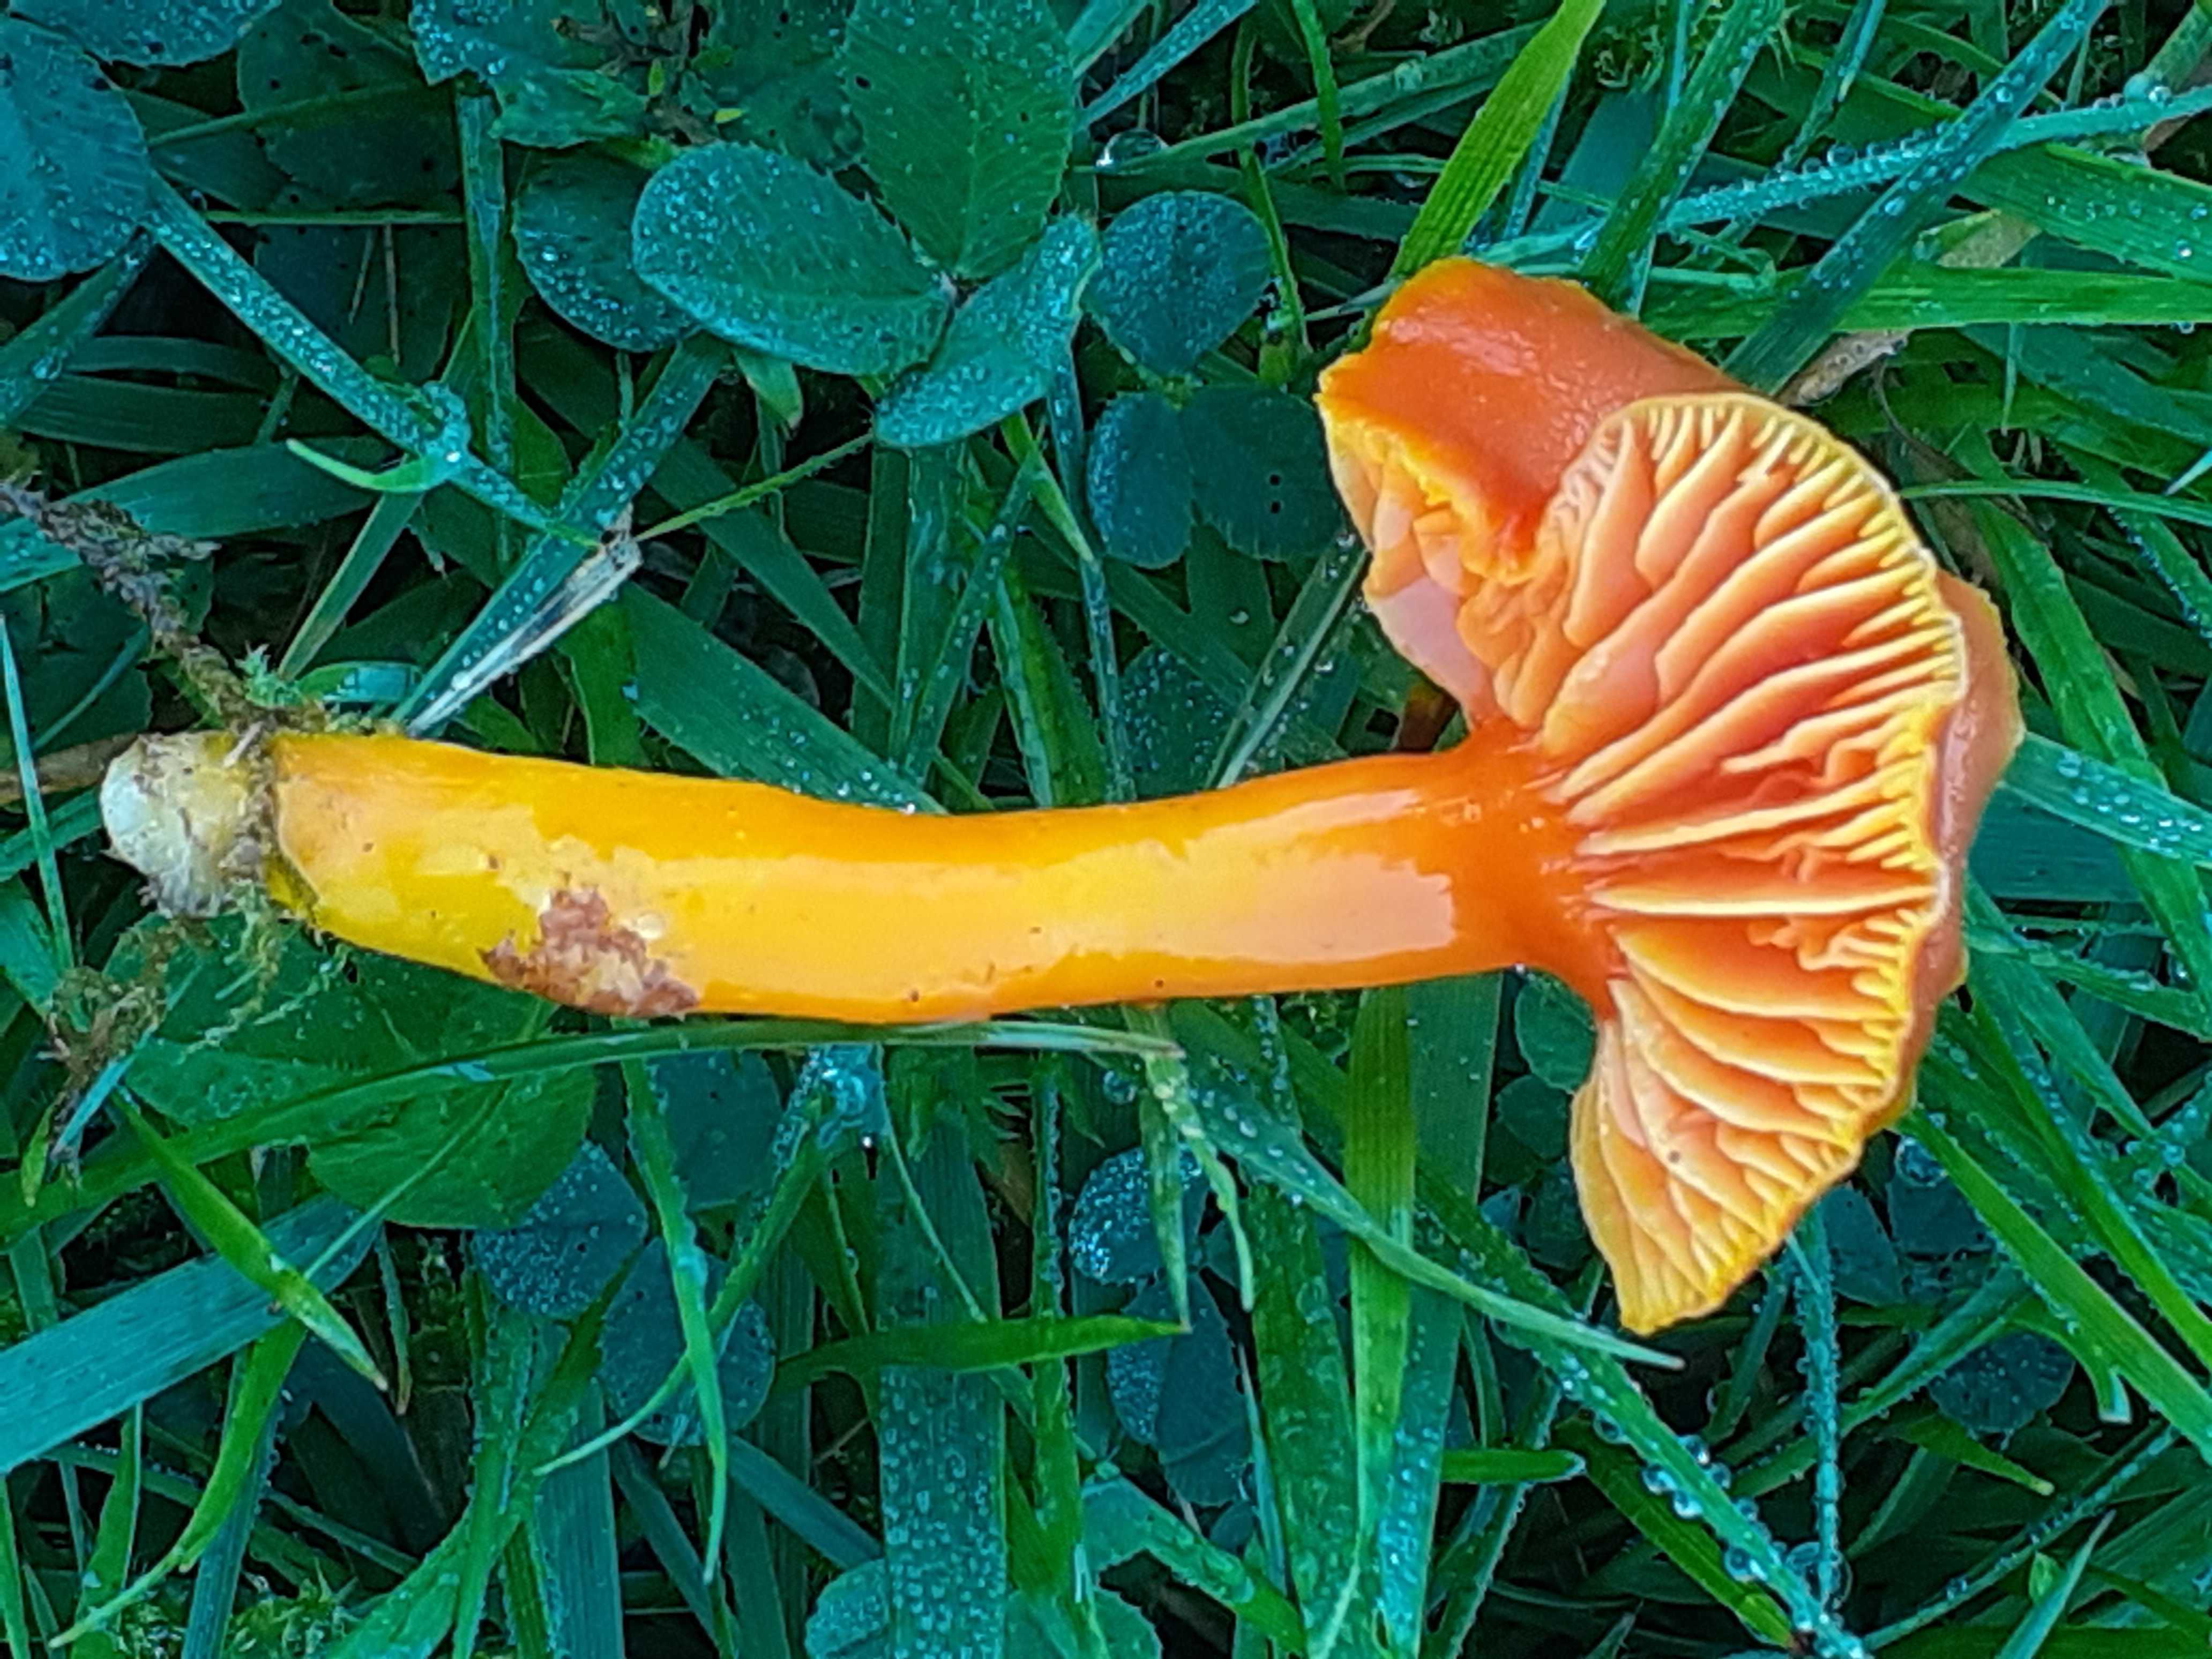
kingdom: Fungi
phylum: Basidiomycota
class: Agaricomycetes
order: Agaricales
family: Hygrophoraceae
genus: Hygrocybe
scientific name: Hygrocybe miniata
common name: mønje-vokshat
